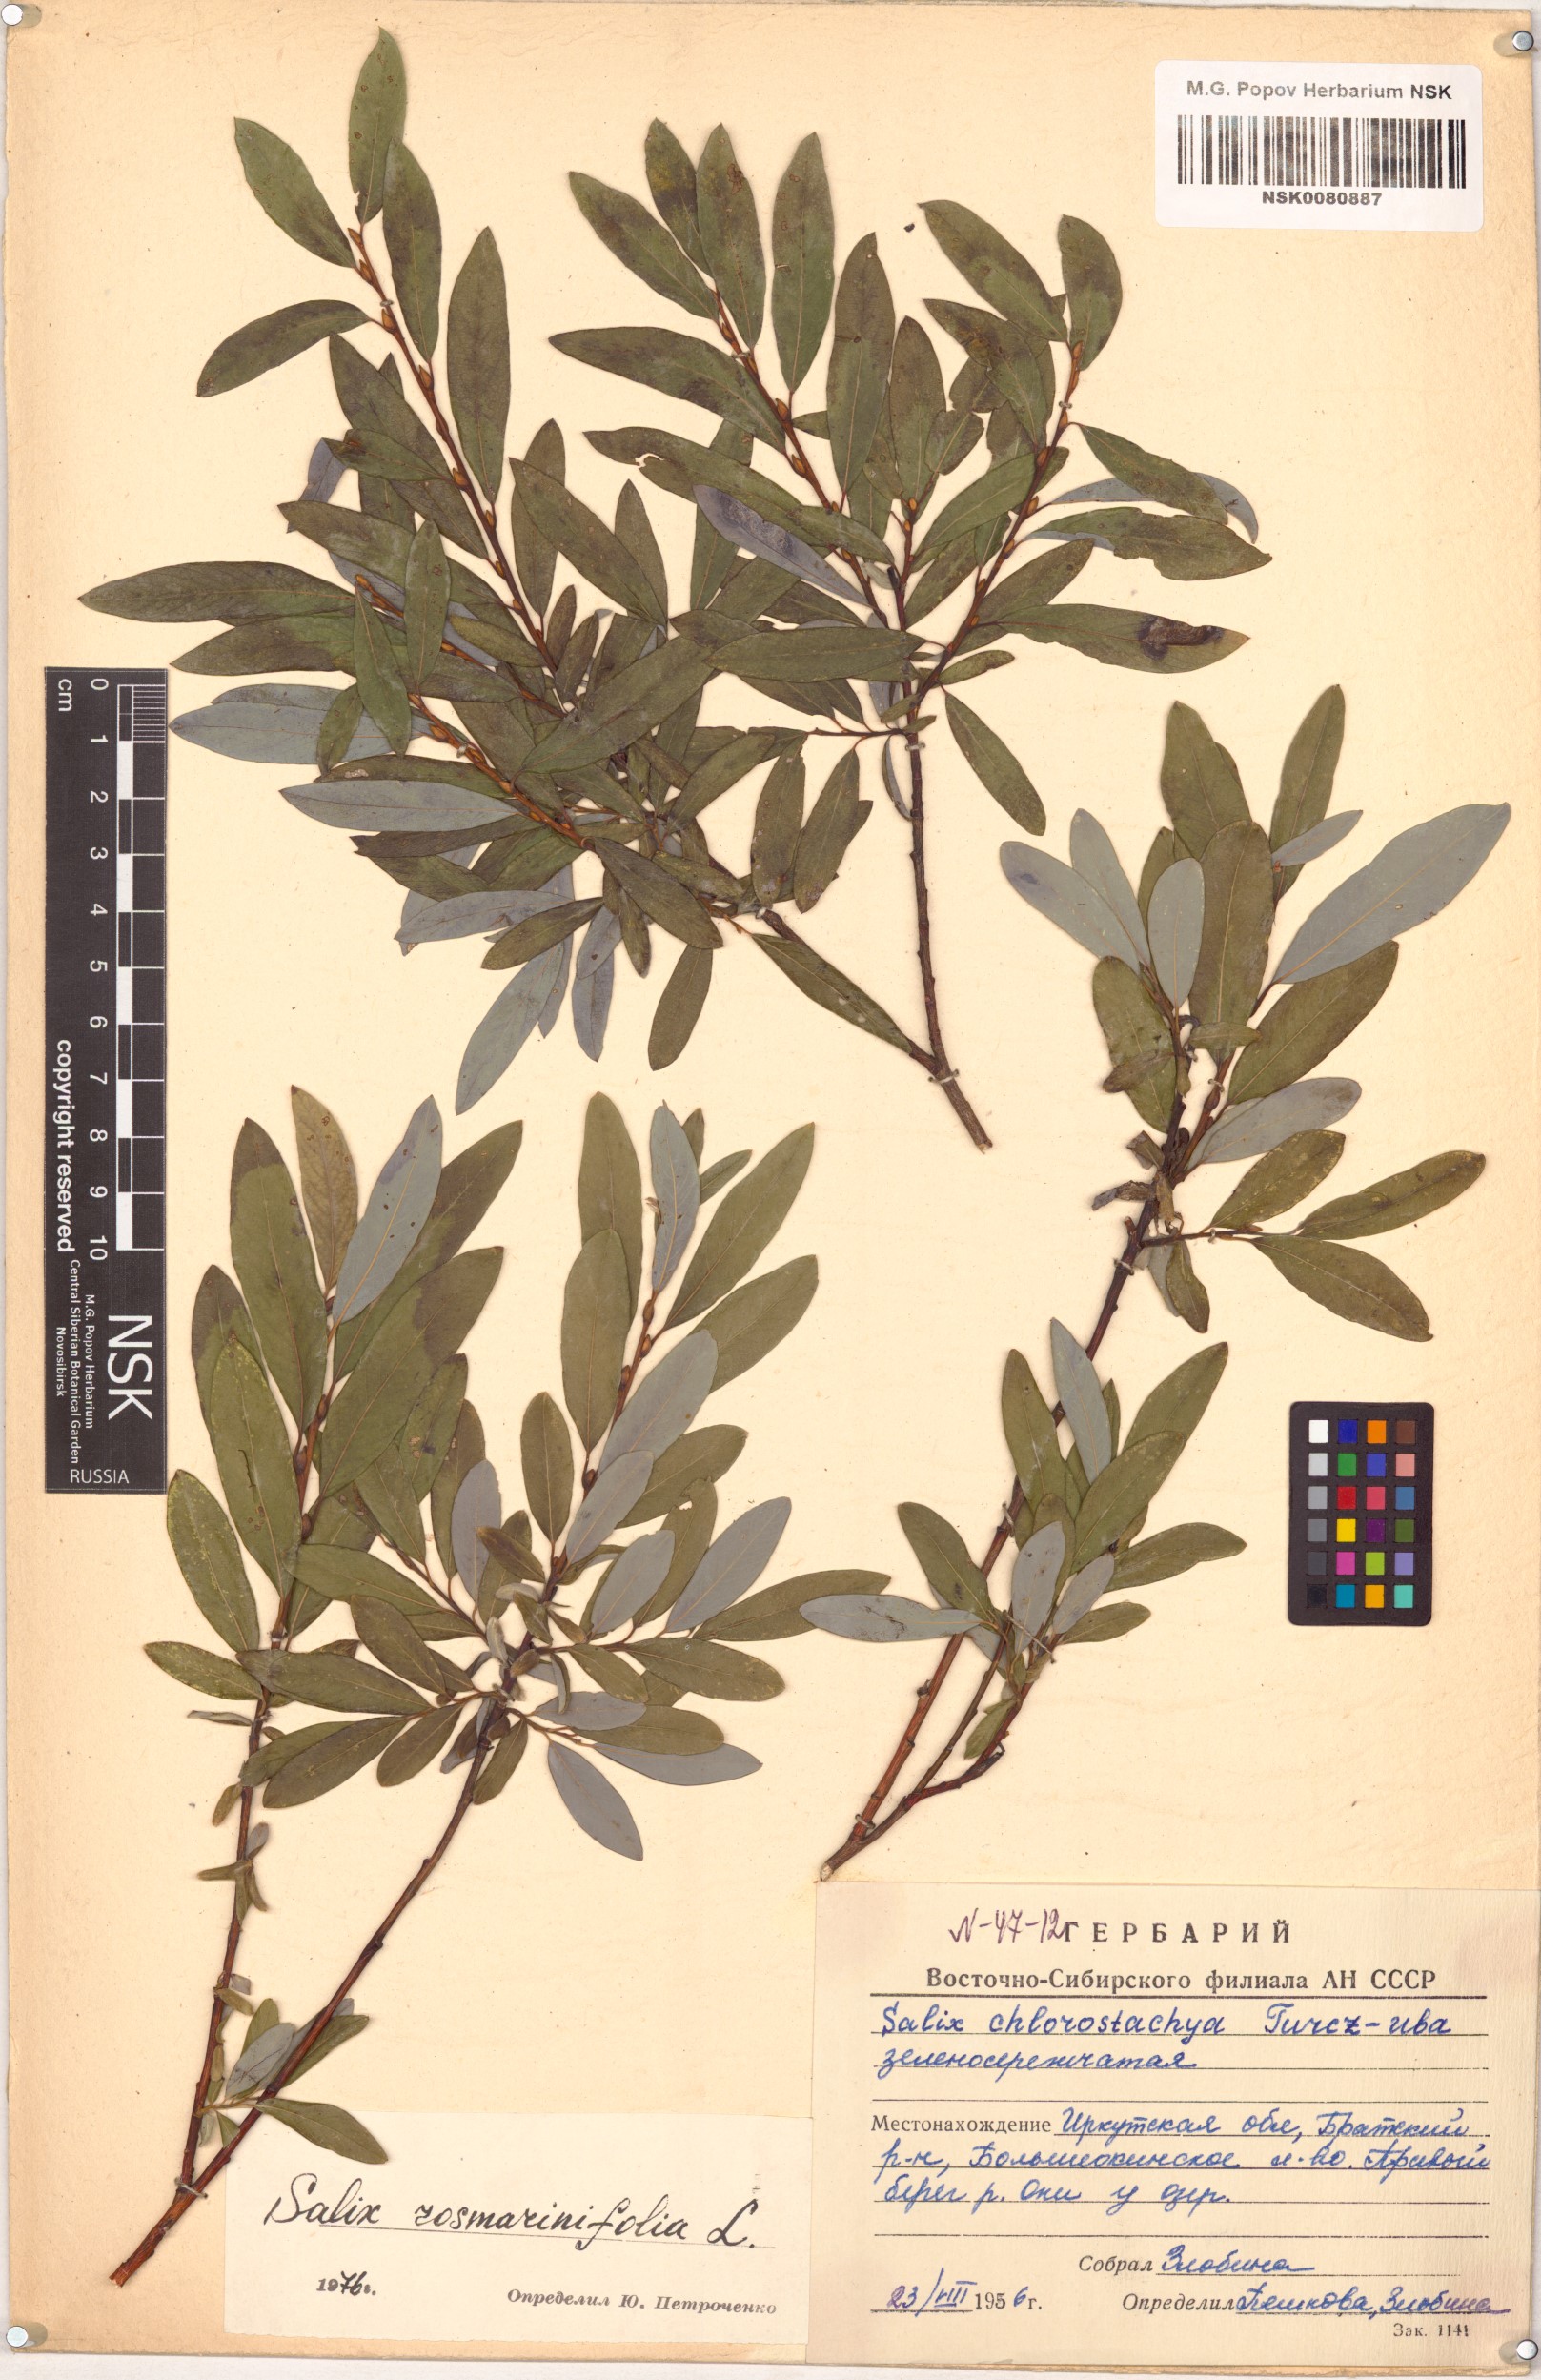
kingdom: Plantae
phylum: Tracheophyta
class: Magnoliopsida
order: Malpighiales
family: Salicaceae
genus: Salix
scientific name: Salix rosmarinifolia
